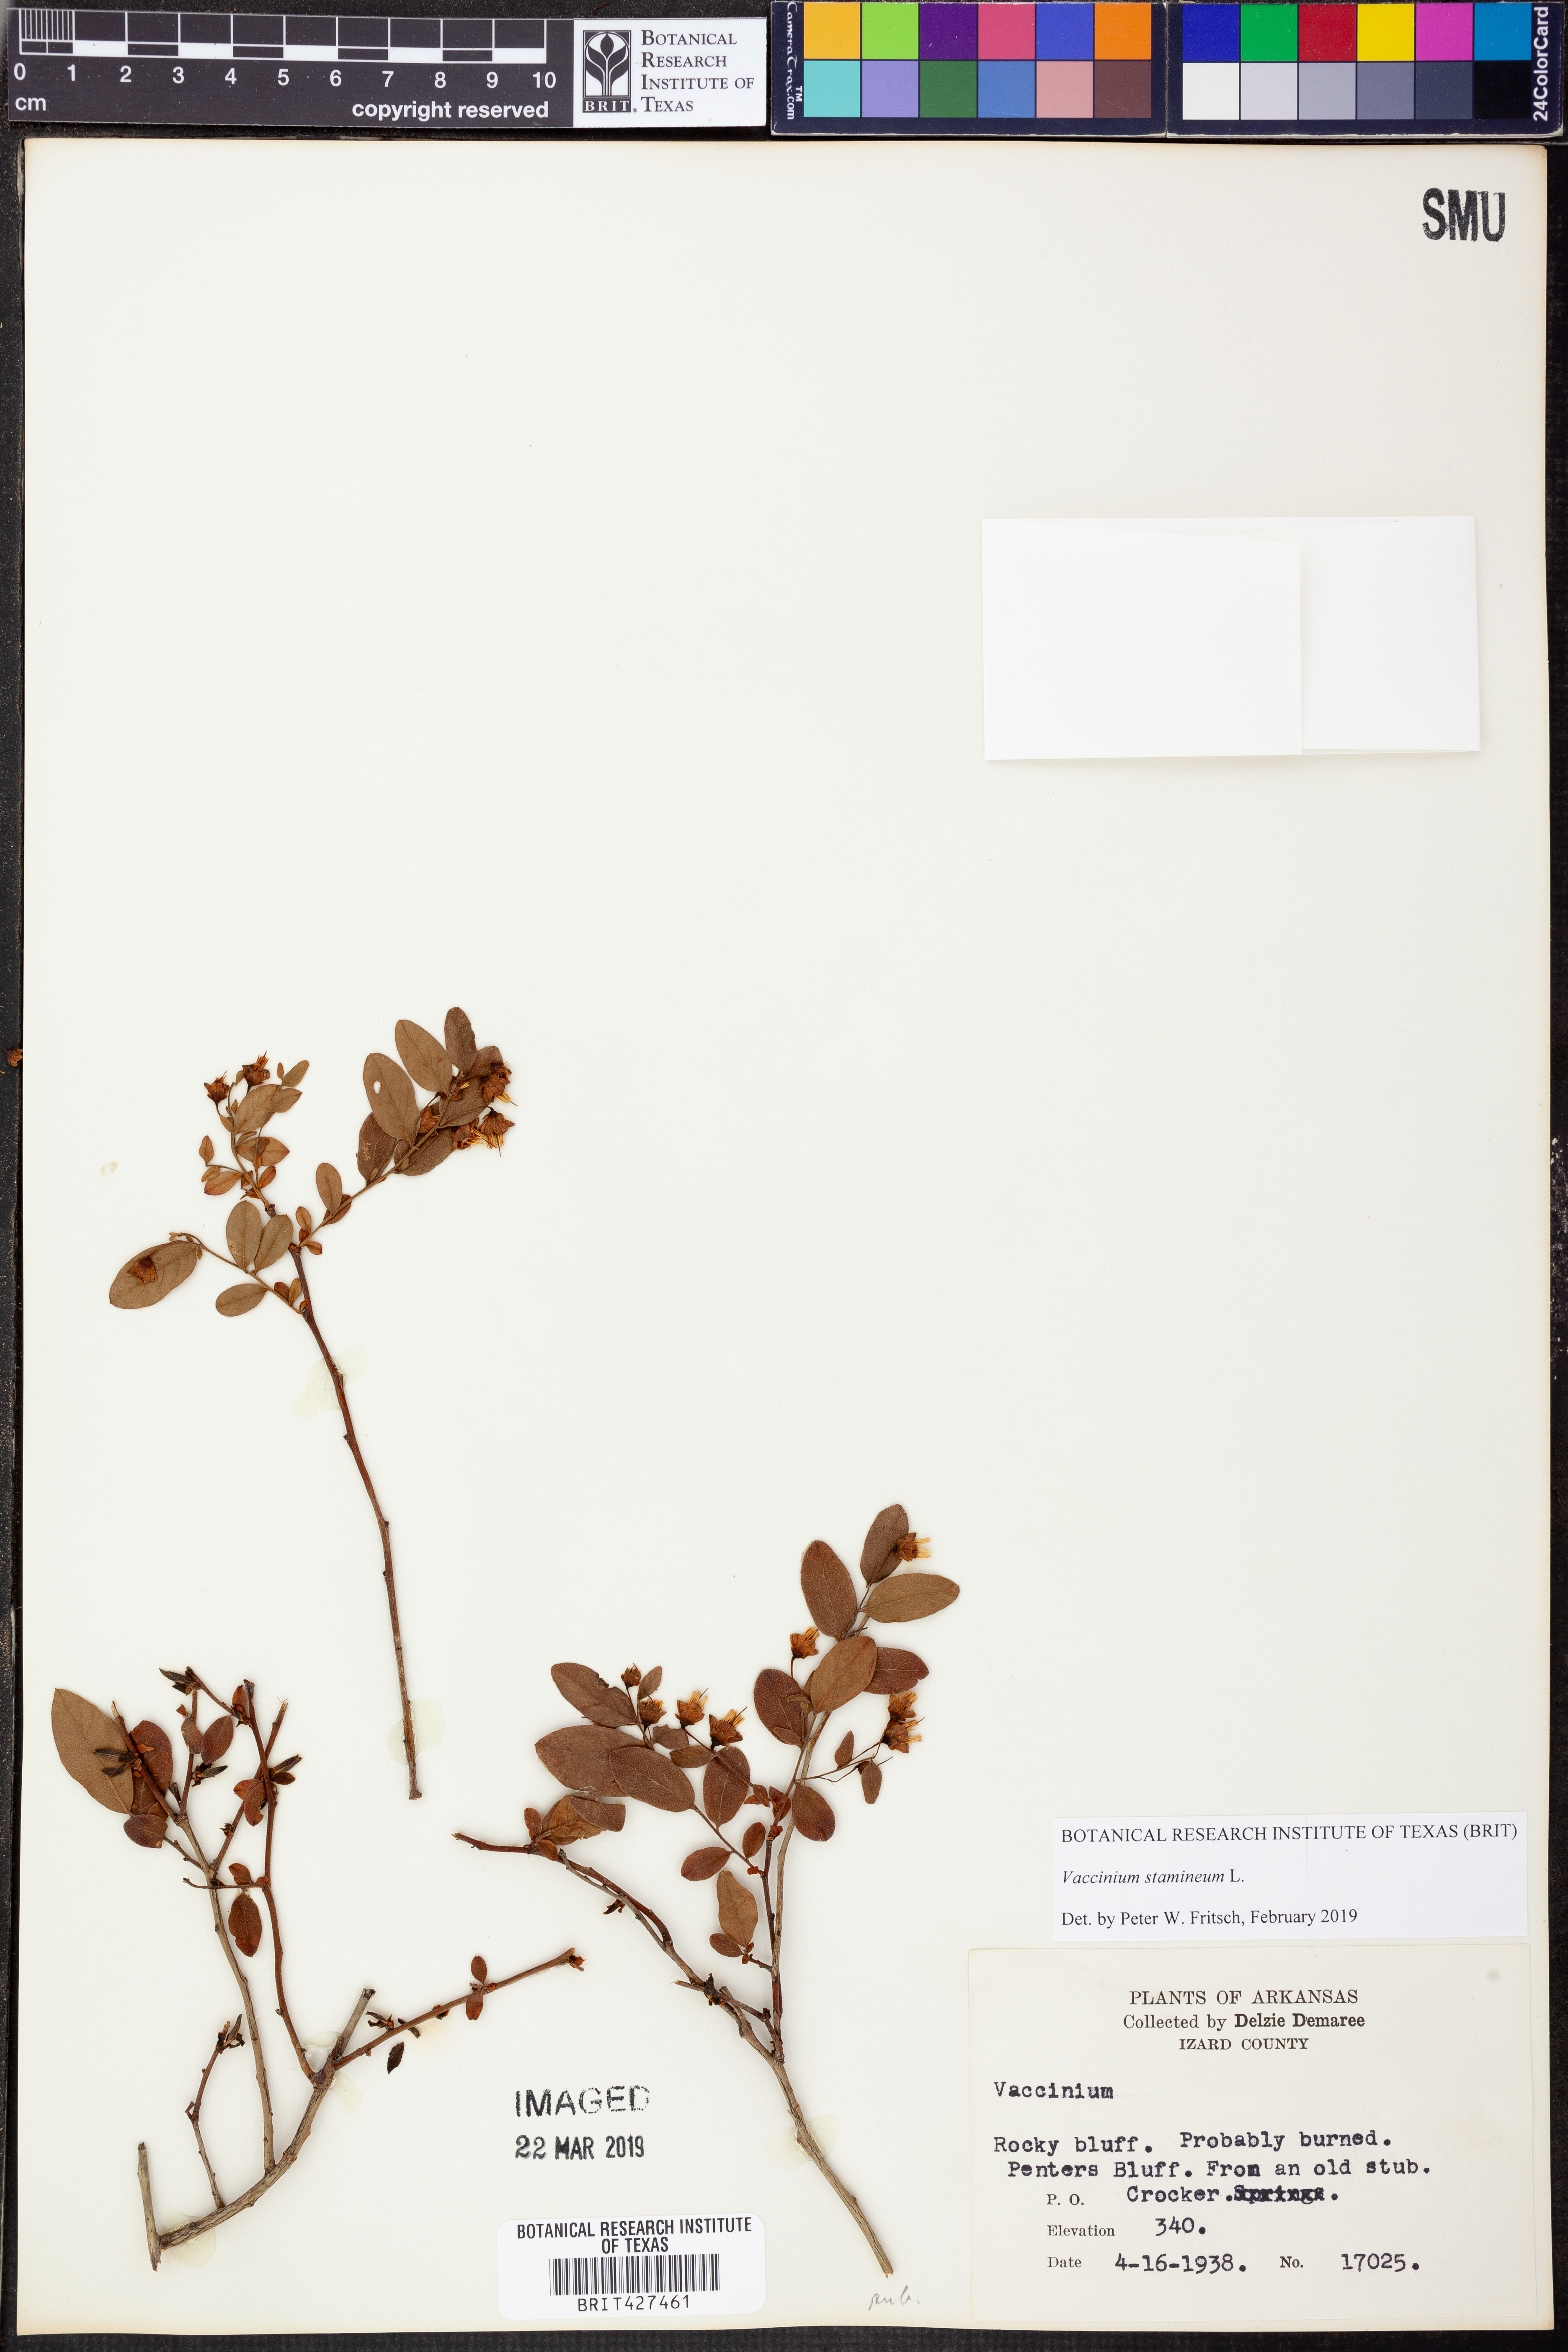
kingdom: Plantae
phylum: Tracheophyta
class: Magnoliopsida
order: Ericales
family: Ericaceae
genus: Vaccinium
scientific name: Vaccinium stamineum
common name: Deerberry
